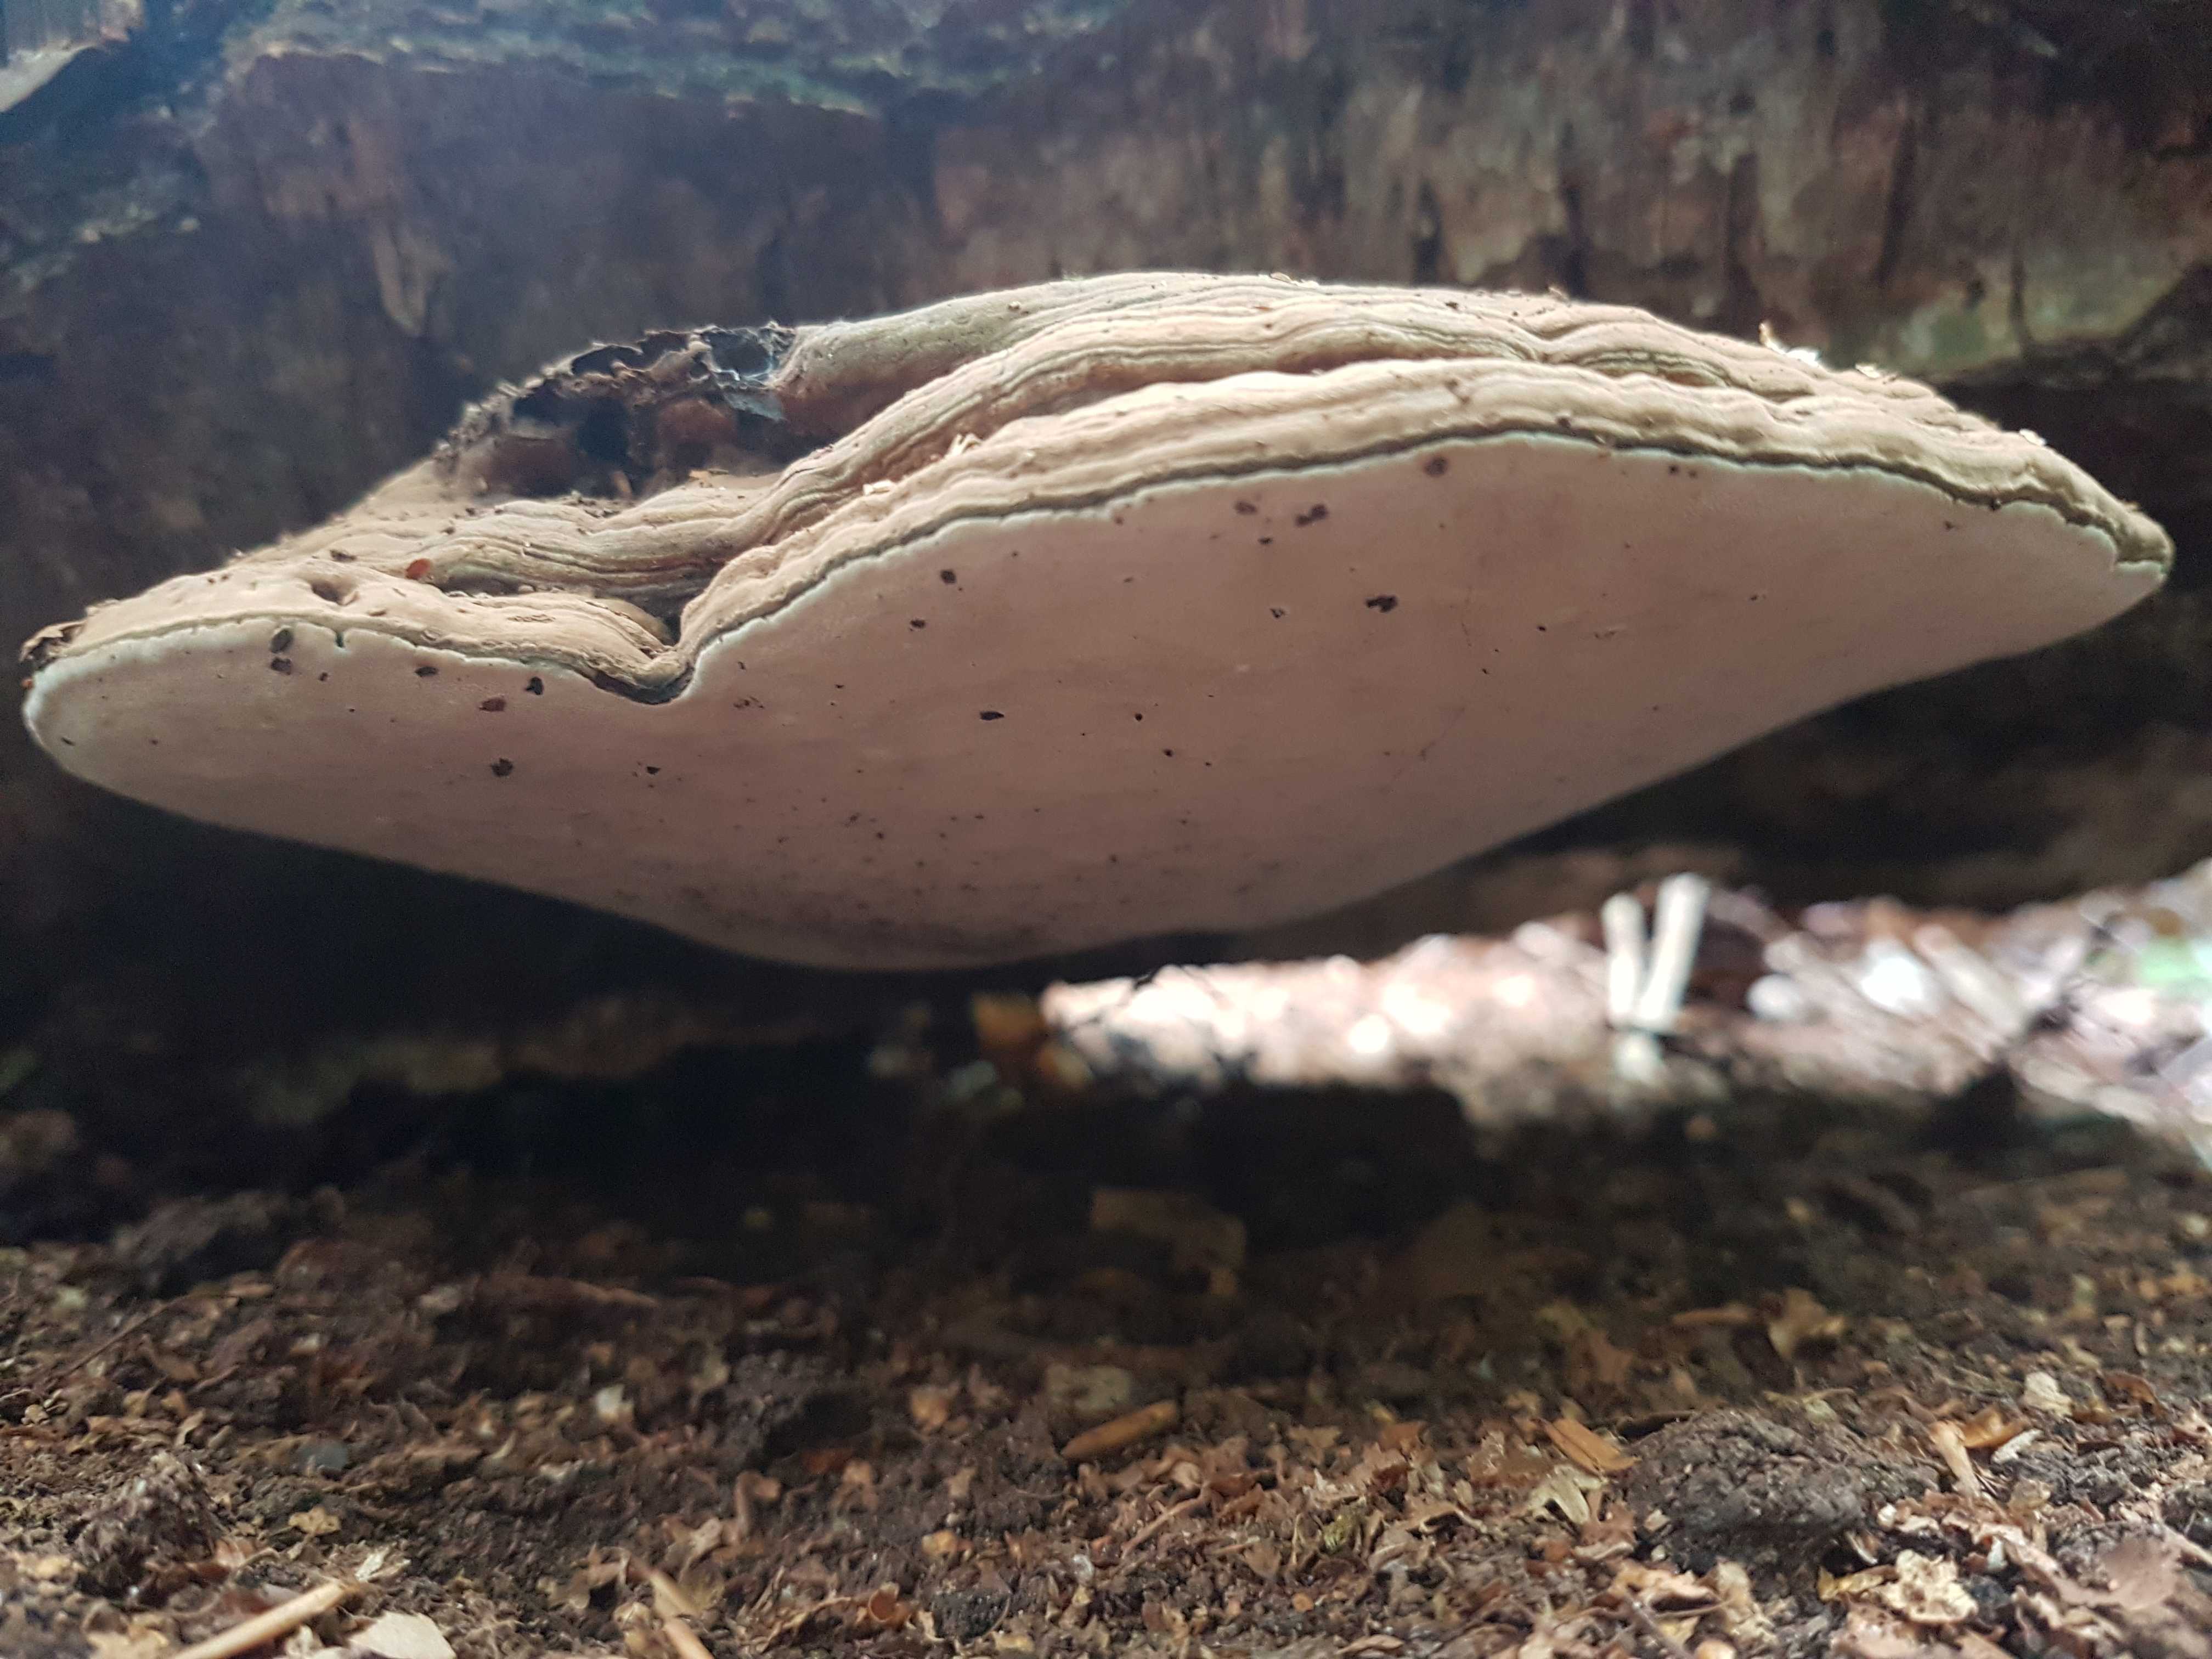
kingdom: Fungi
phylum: Basidiomycota
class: Agaricomycetes
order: Polyporales
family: Polyporaceae
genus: Ganoderma
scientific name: Ganoderma applanatum
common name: flad lakporesvamp
